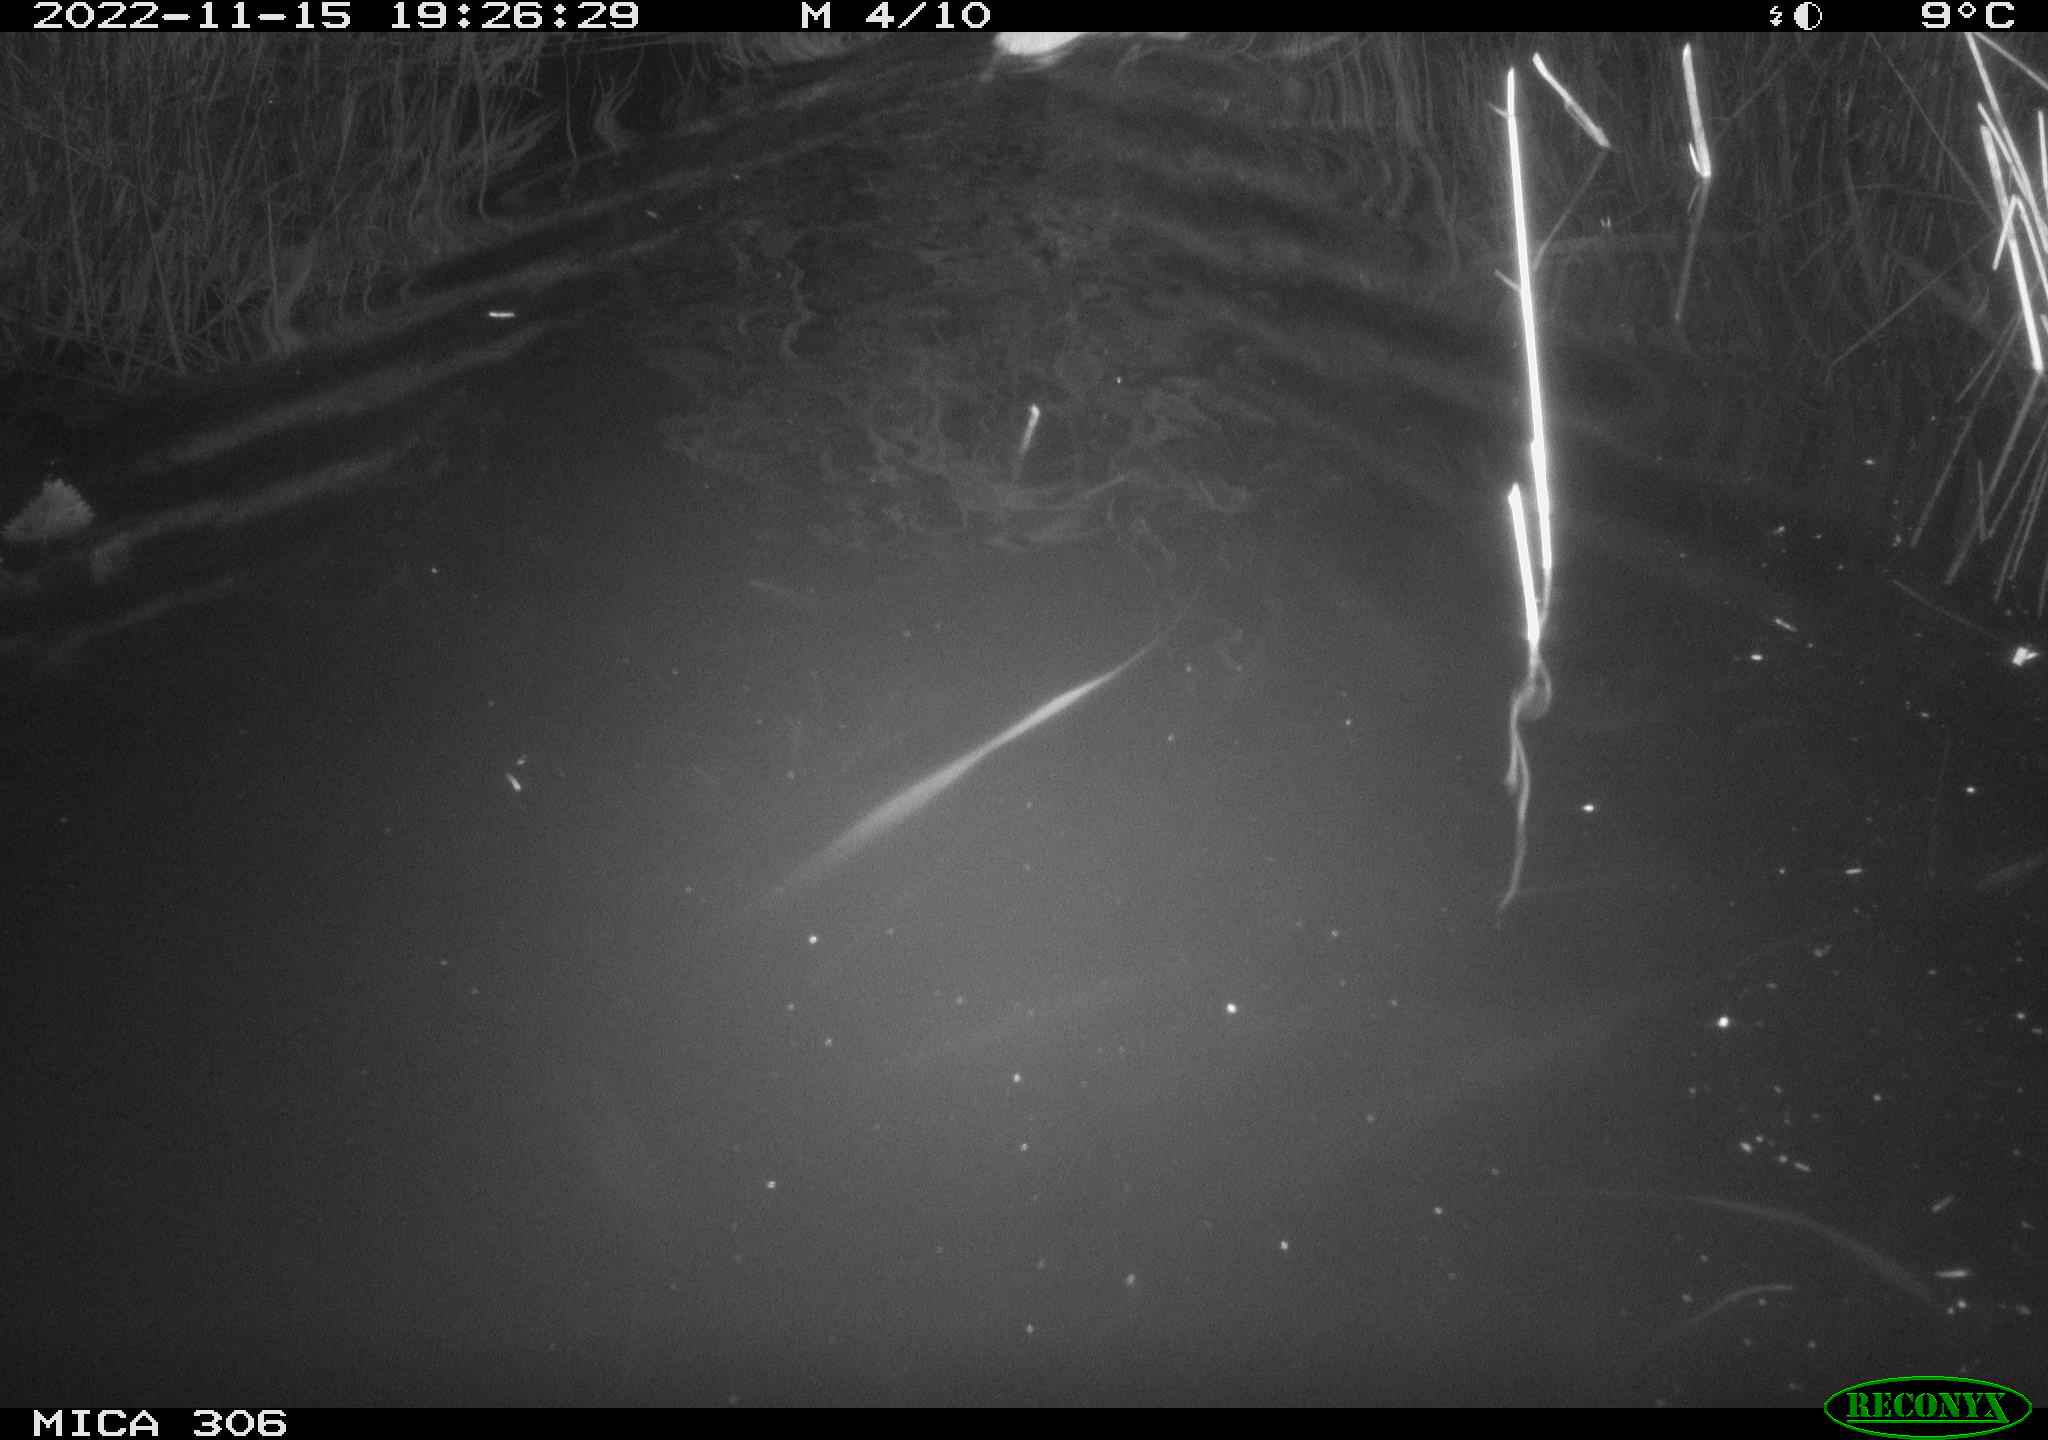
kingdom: Animalia
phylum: Chordata
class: Mammalia
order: Rodentia
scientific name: Rodentia
